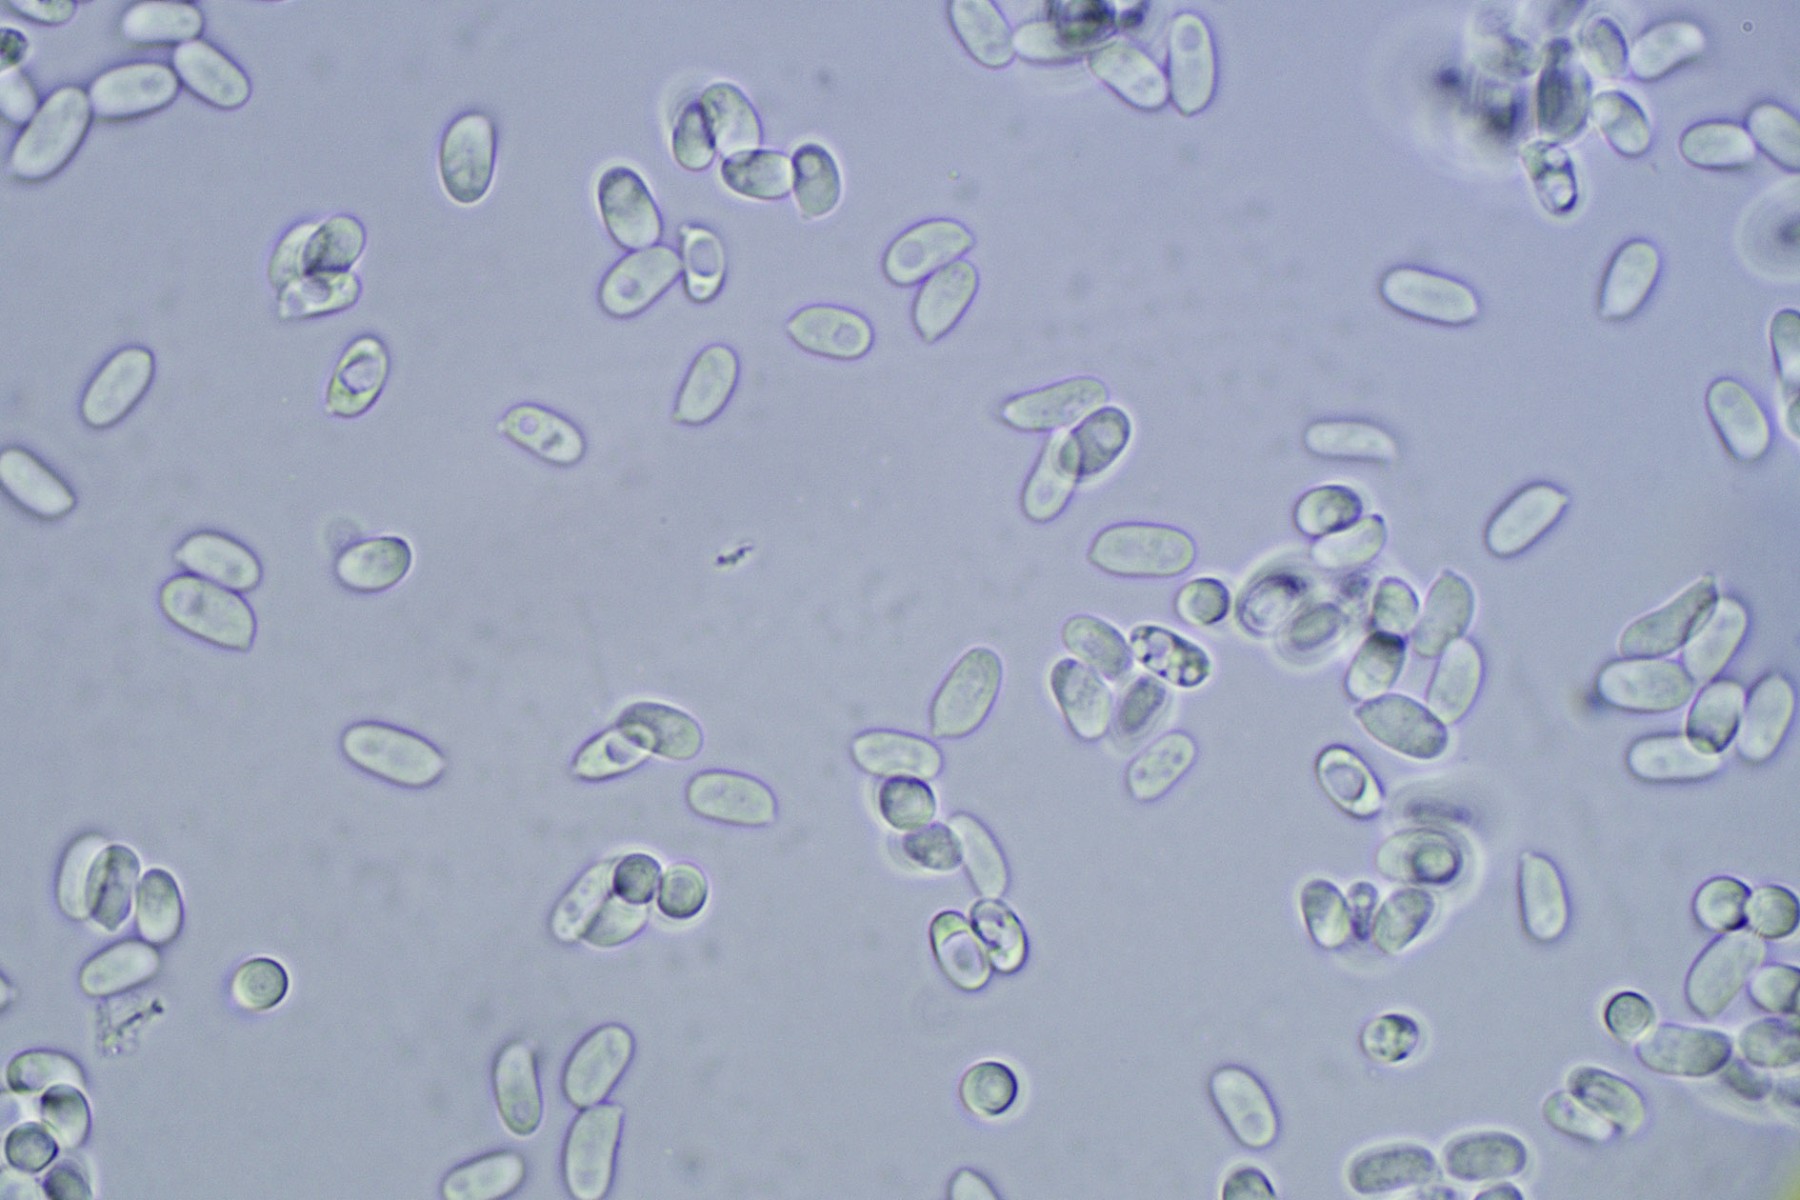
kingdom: Fungi
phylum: Basidiomycota
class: Agaricomycetes
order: Hymenochaetales
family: Rickenellaceae
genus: Resinicium
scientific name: Resinicium bicolor
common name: almindelig vokstand
